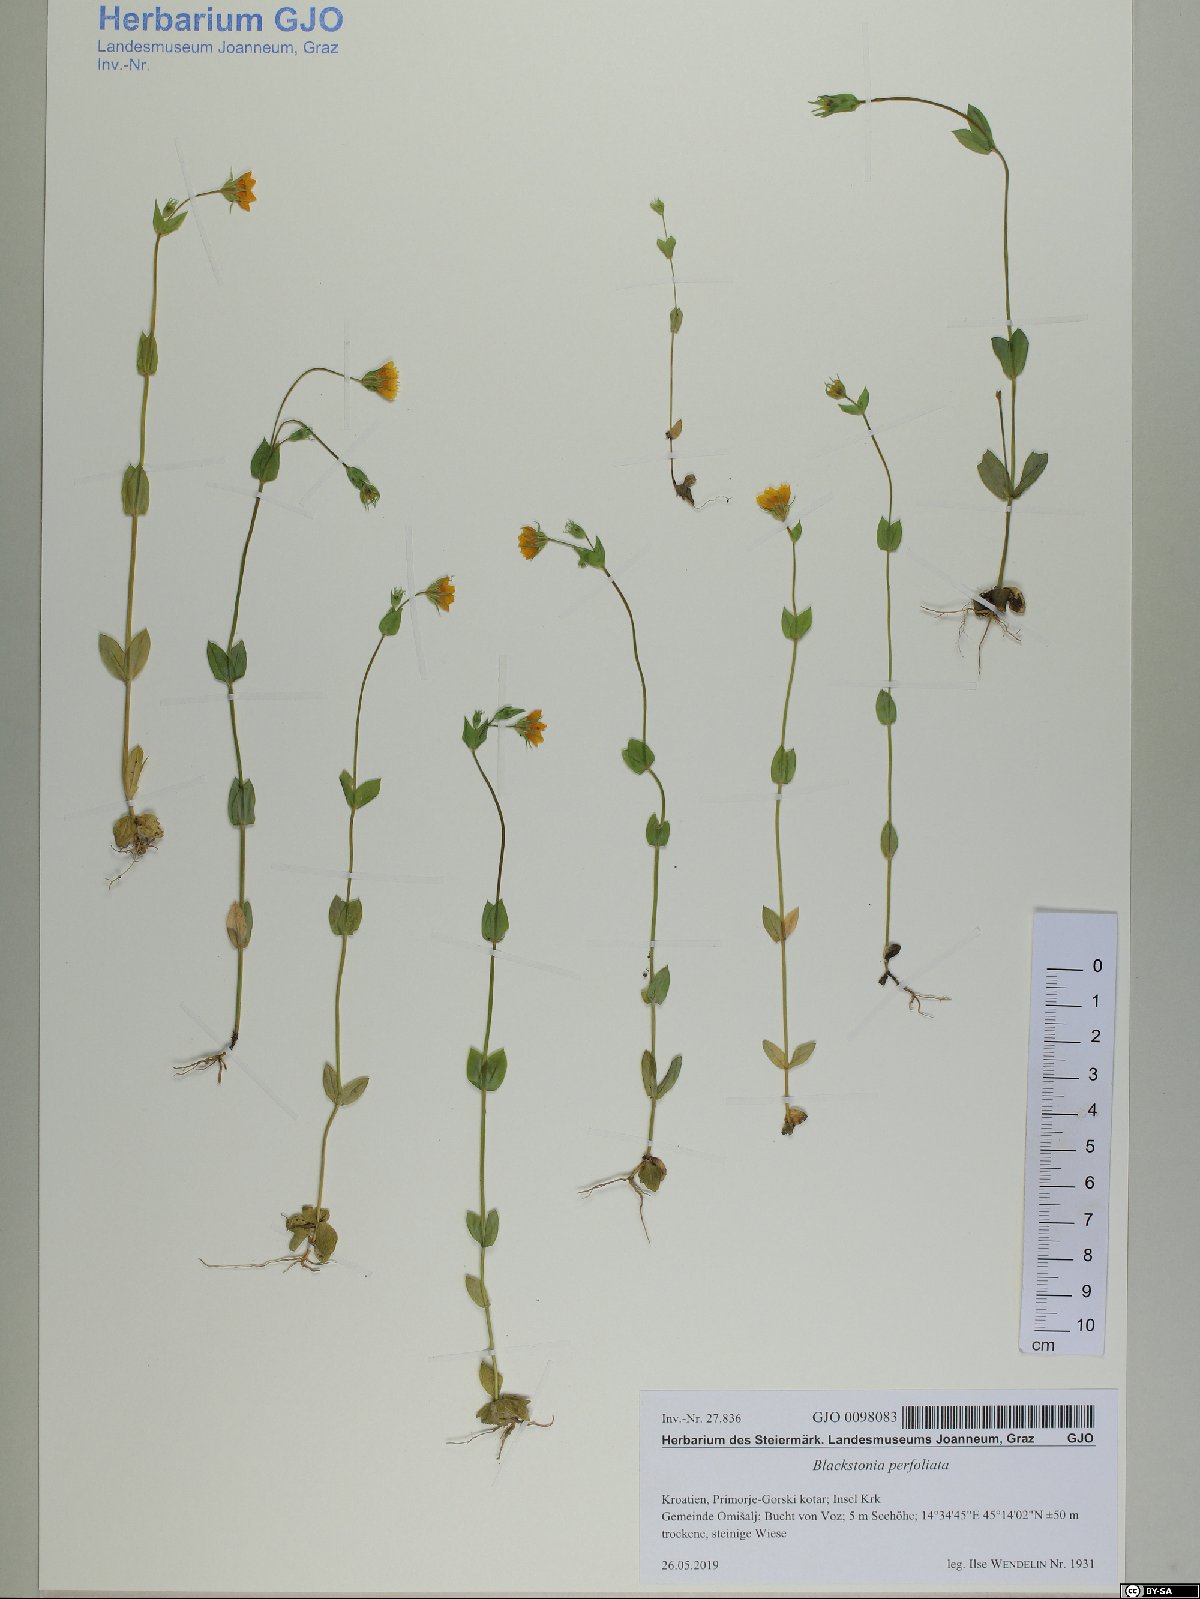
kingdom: Plantae
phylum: Tracheophyta
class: Magnoliopsida
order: Gentianales
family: Gentianaceae
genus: Blackstonia
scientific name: Blackstonia perfoliata
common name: Yellow-wort
